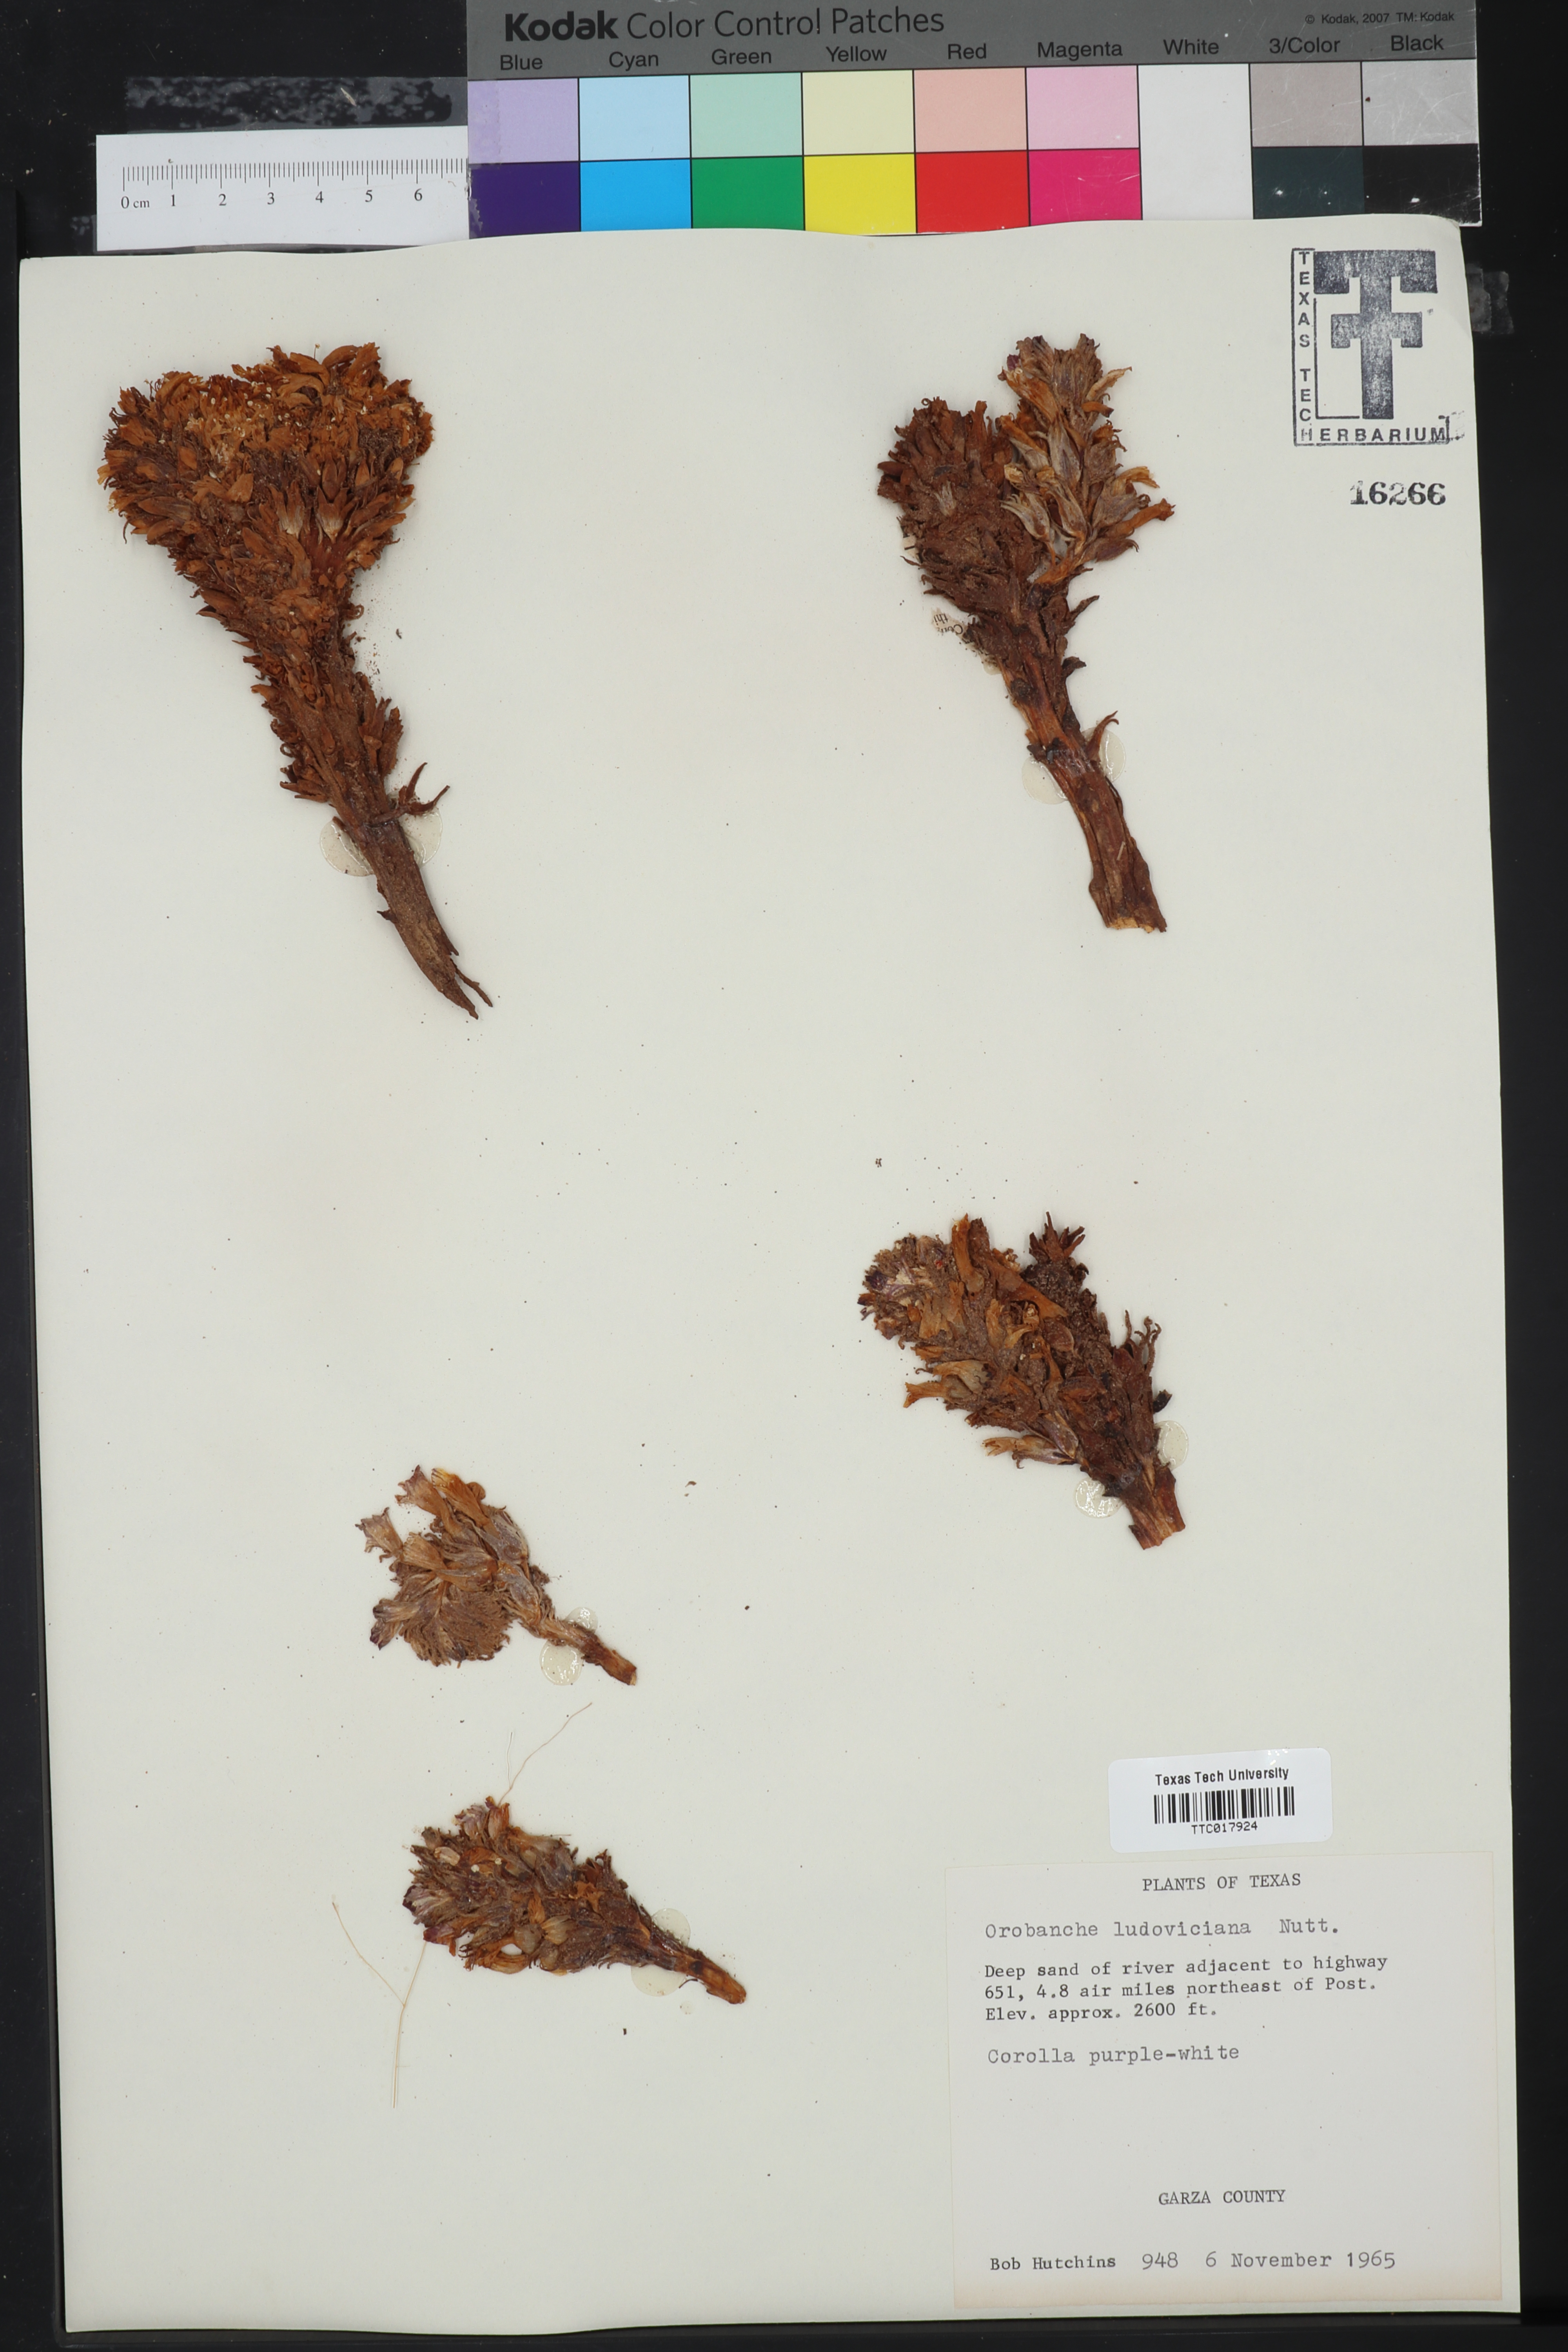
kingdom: Plantae
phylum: Tracheophyta
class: Magnoliopsida
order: Lamiales
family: Orobanchaceae
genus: Aphyllon
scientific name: Aphyllon ludovicianum
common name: Louisiana broomrape
